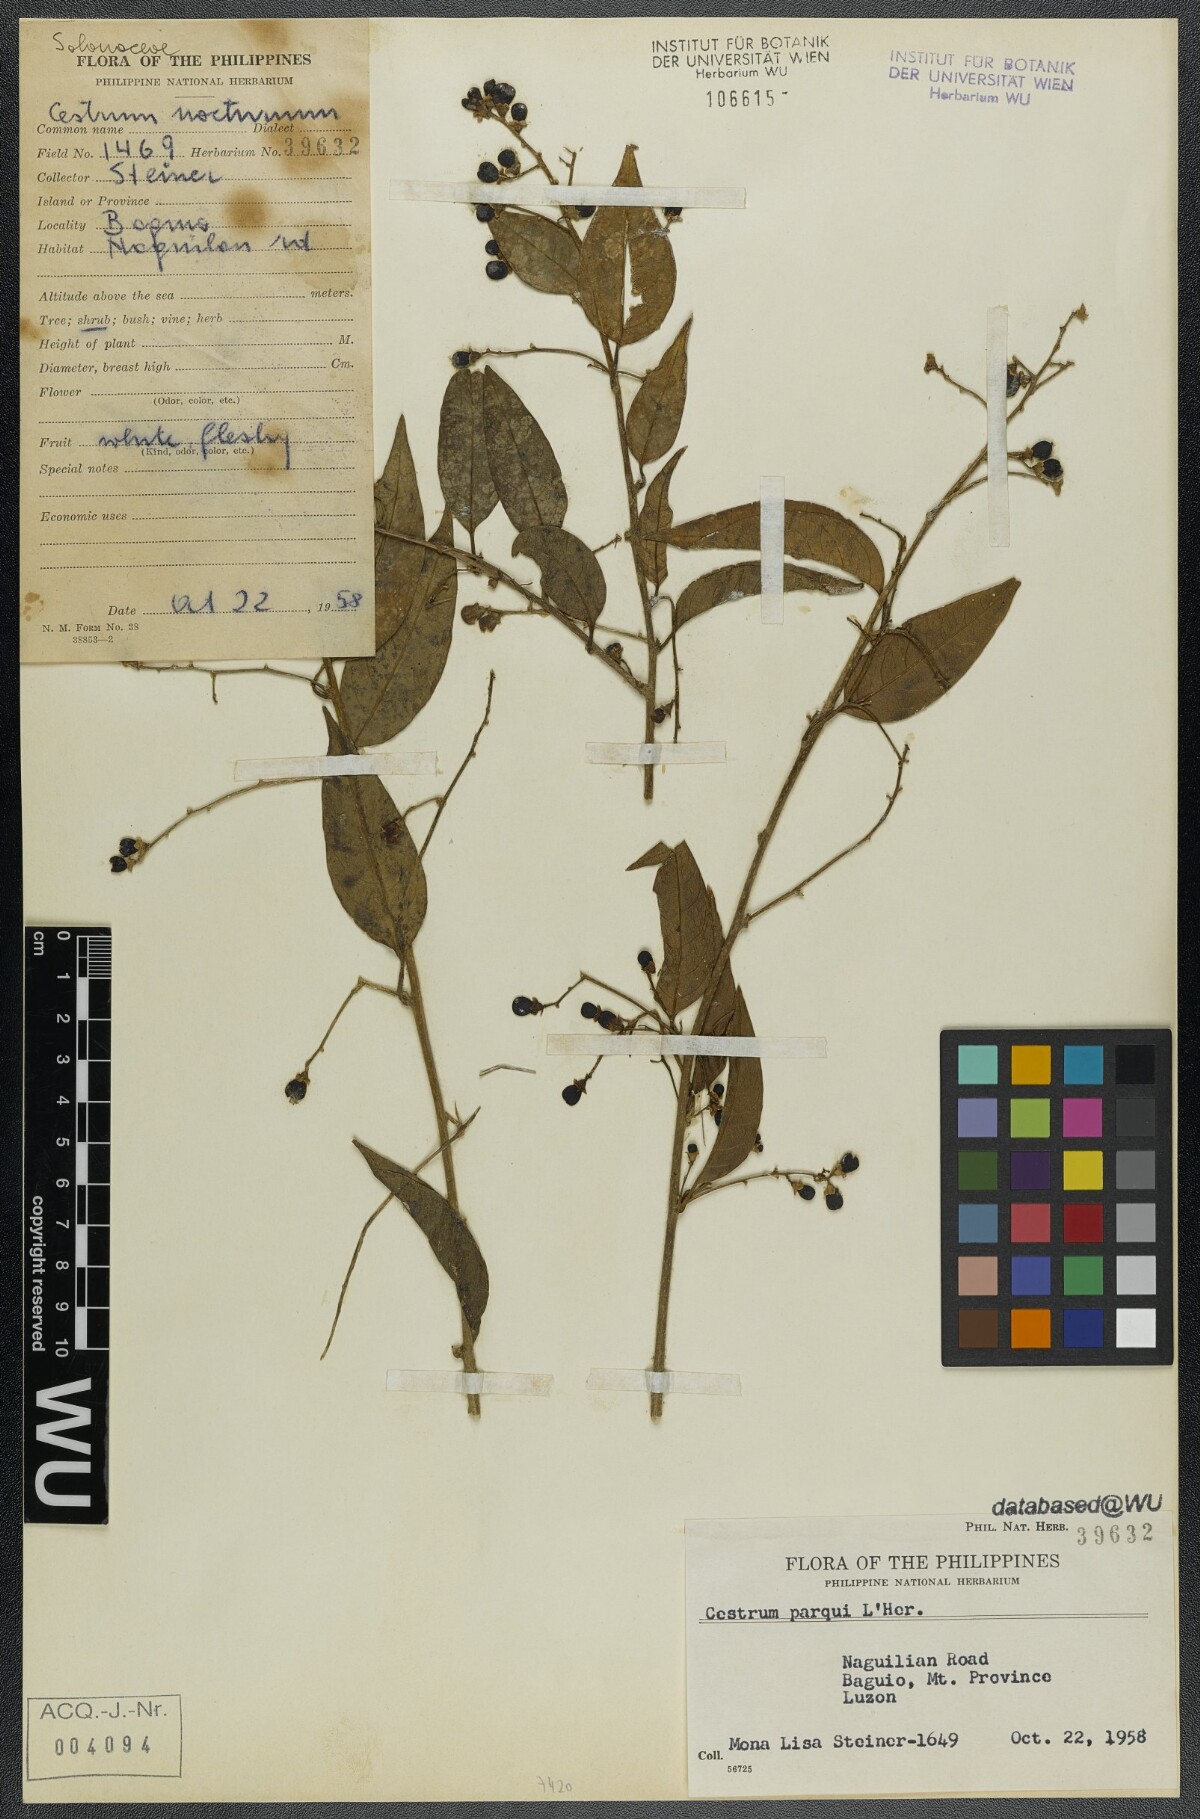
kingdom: Plantae
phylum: Tracheophyta
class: Magnoliopsida
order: Solanales
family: Solanaceae
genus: Cestrum
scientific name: Cestrum thyrsoideum
